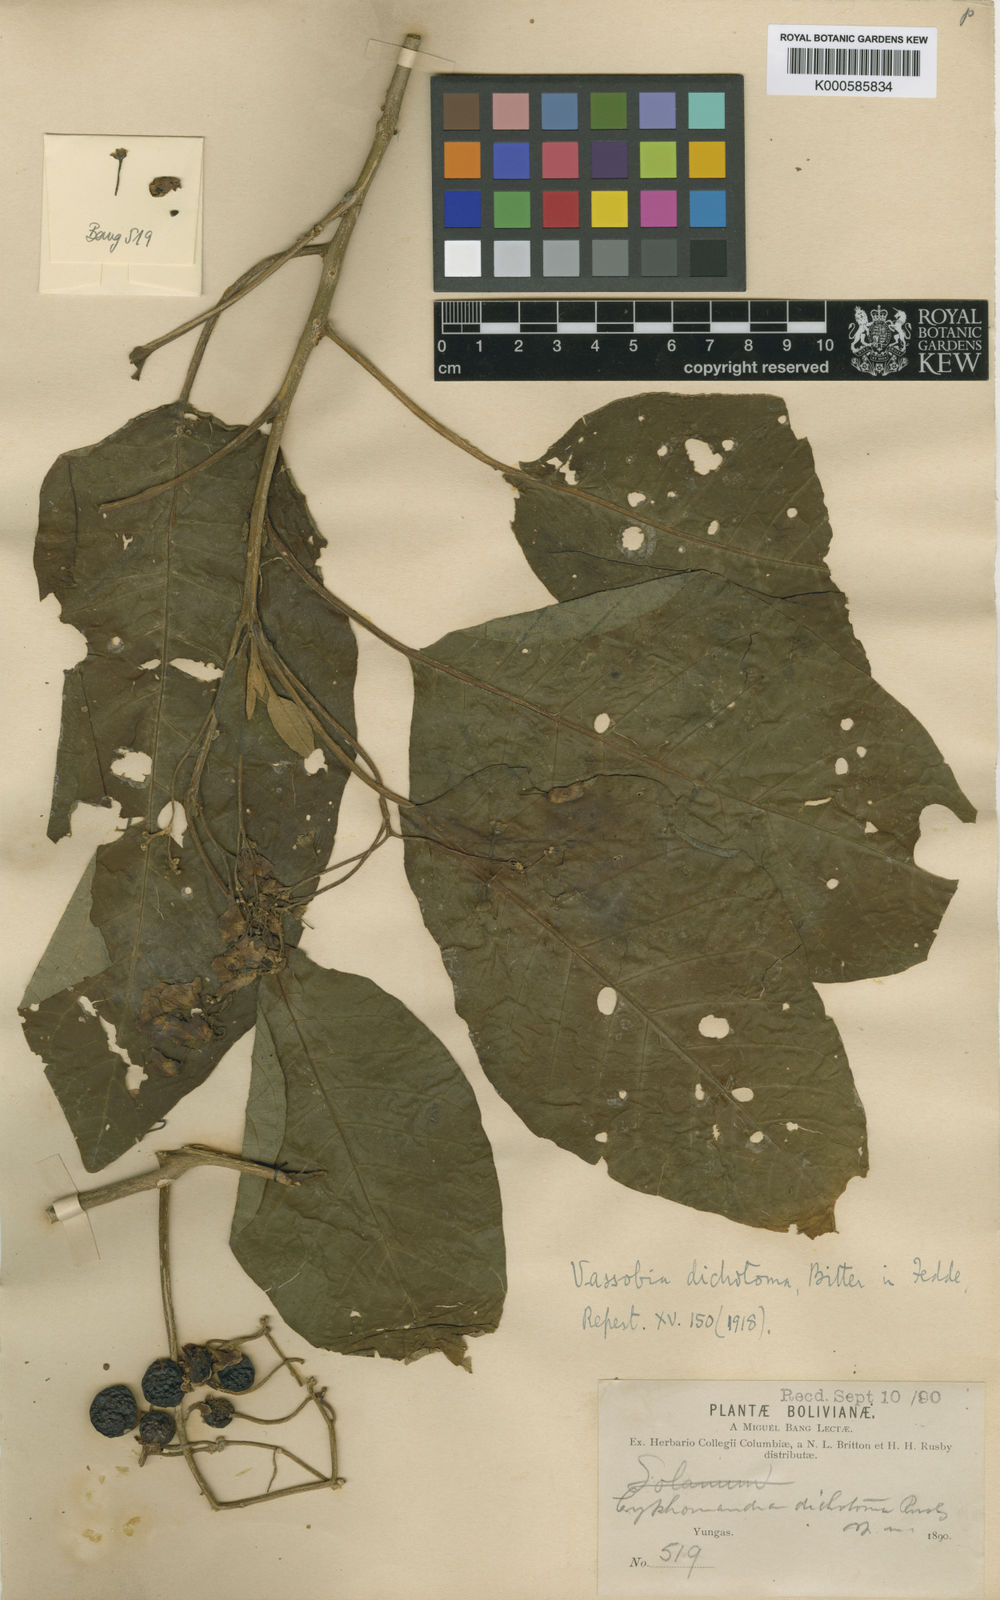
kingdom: Plantae
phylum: Tracheophyta
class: Magnoliopsida
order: Solanales
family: Solanaceae
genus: Vassobia
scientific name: Vassobia dichotoma
